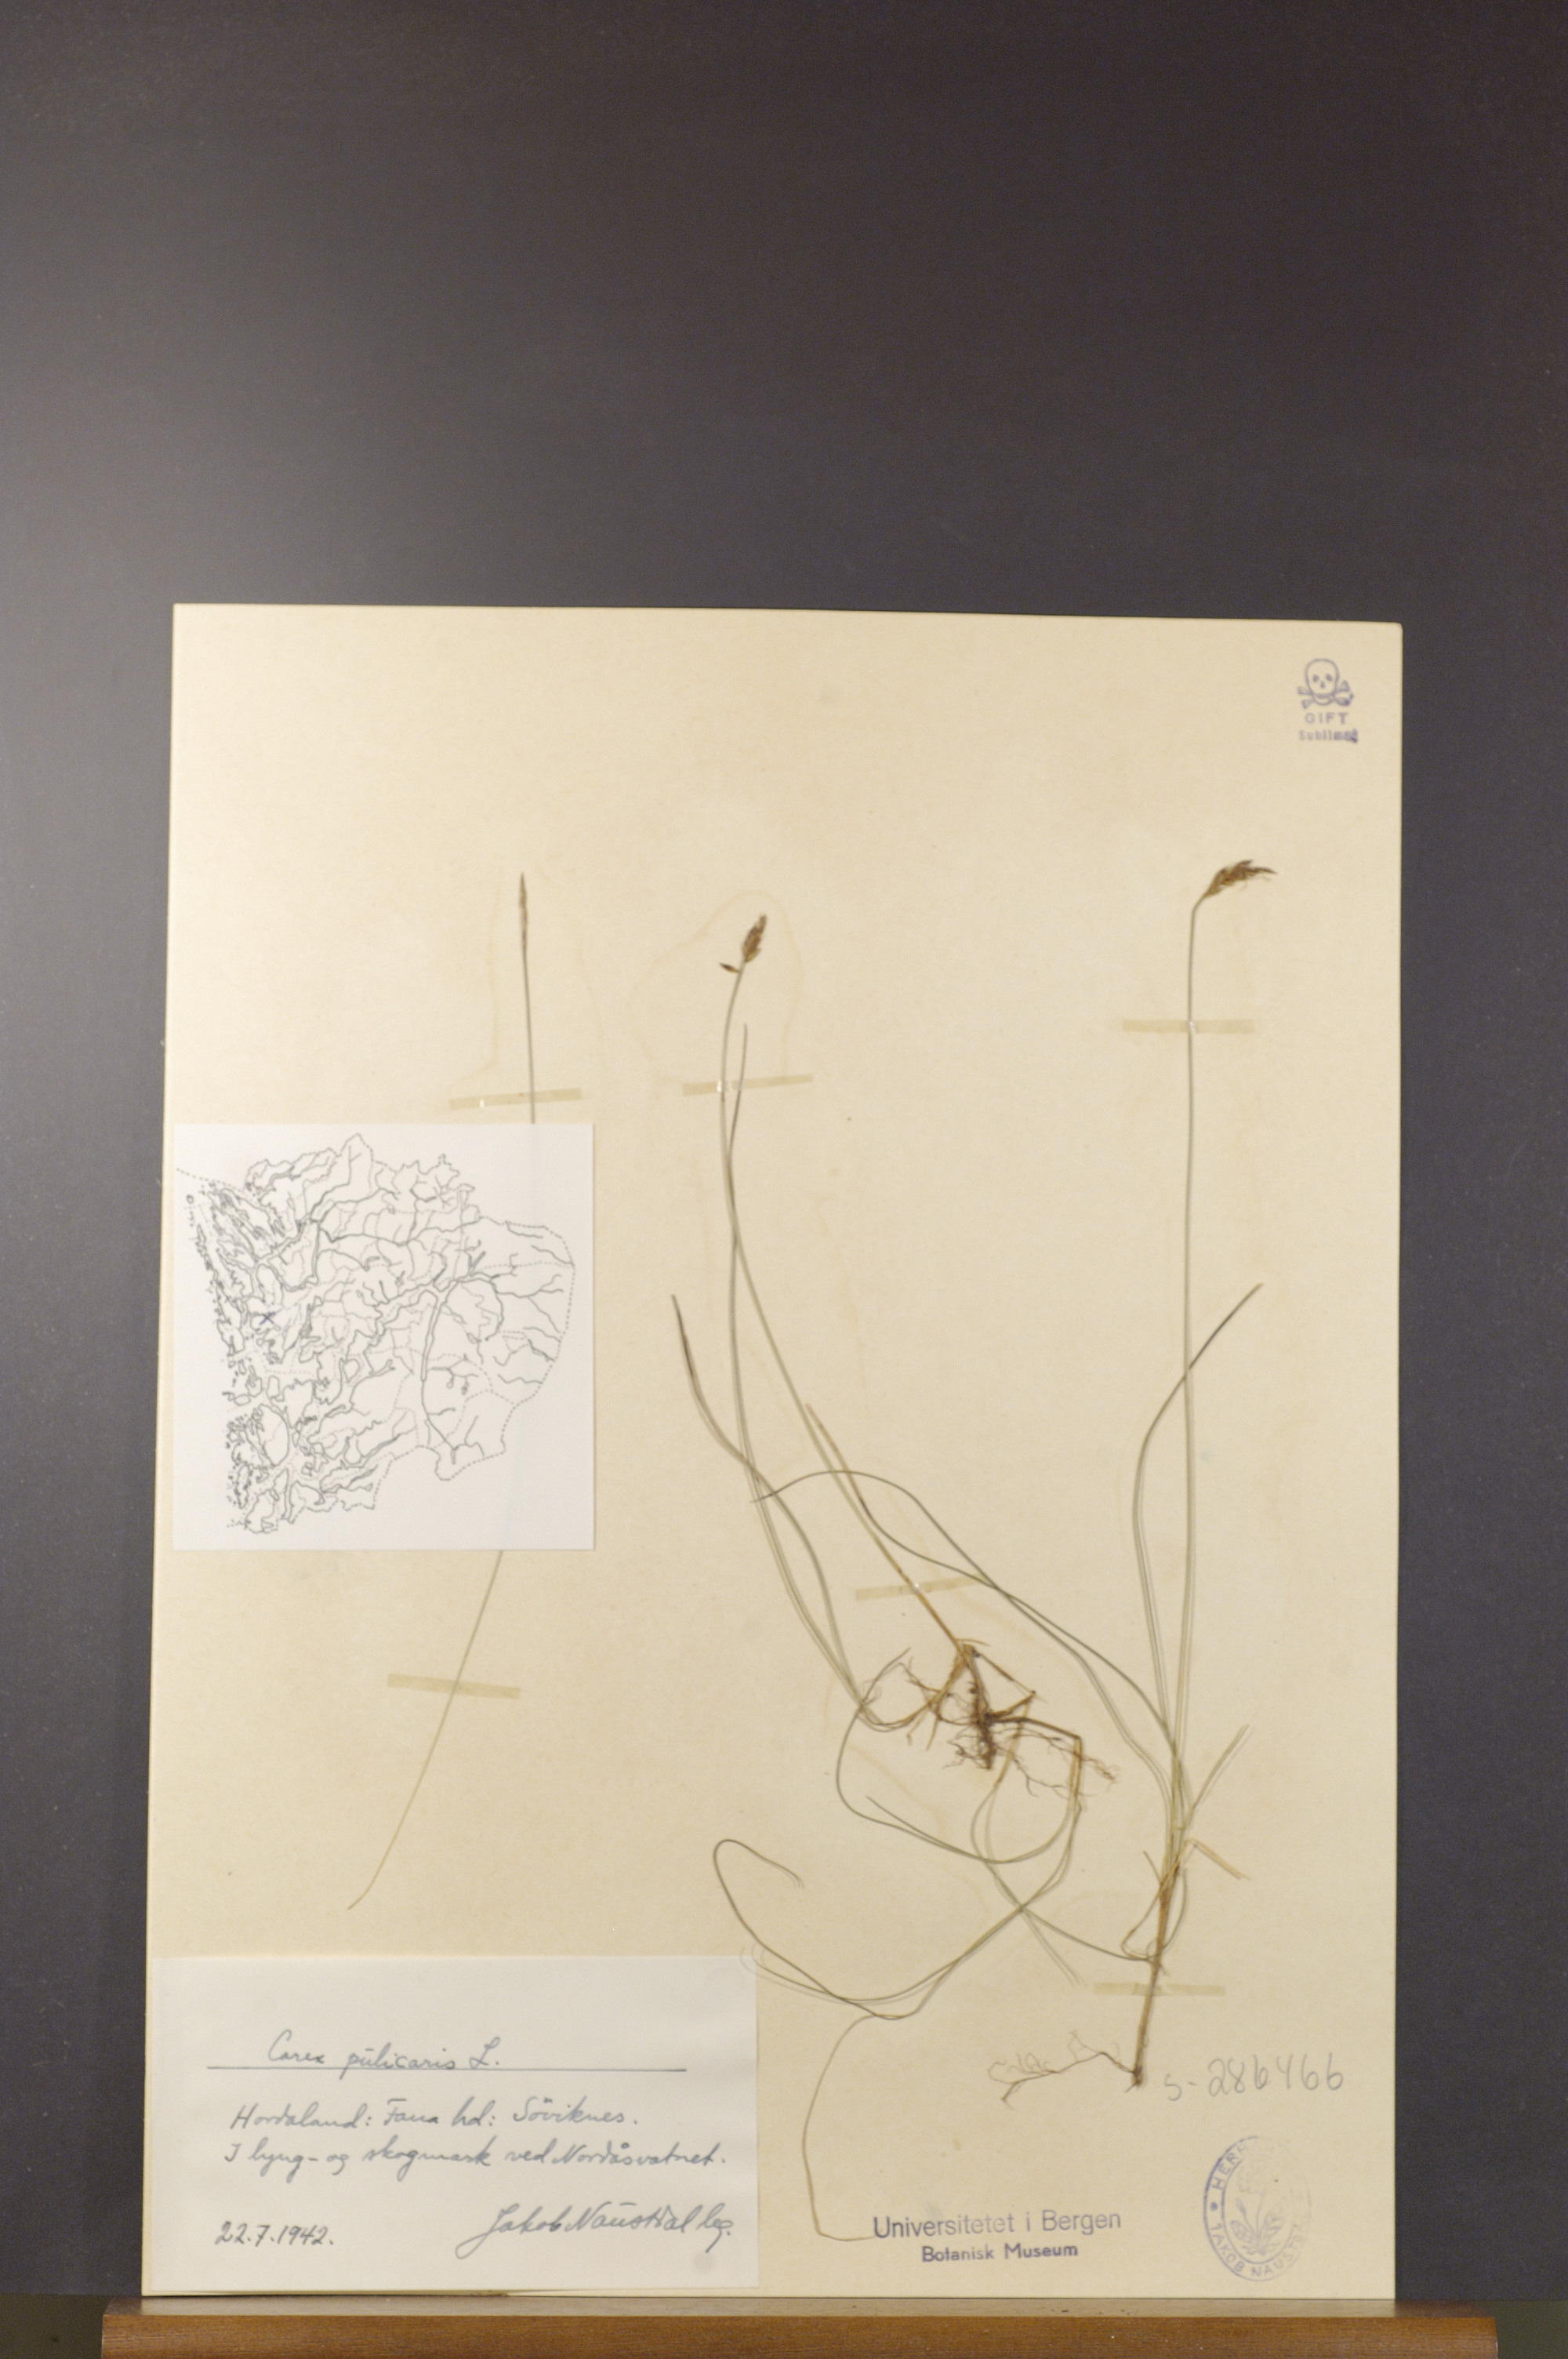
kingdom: Plantae
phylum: Tracheophyta
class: Liliopsida
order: Poales
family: Cyperaceae
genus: Carex
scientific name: Carex pulicaris
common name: Flea sedge
